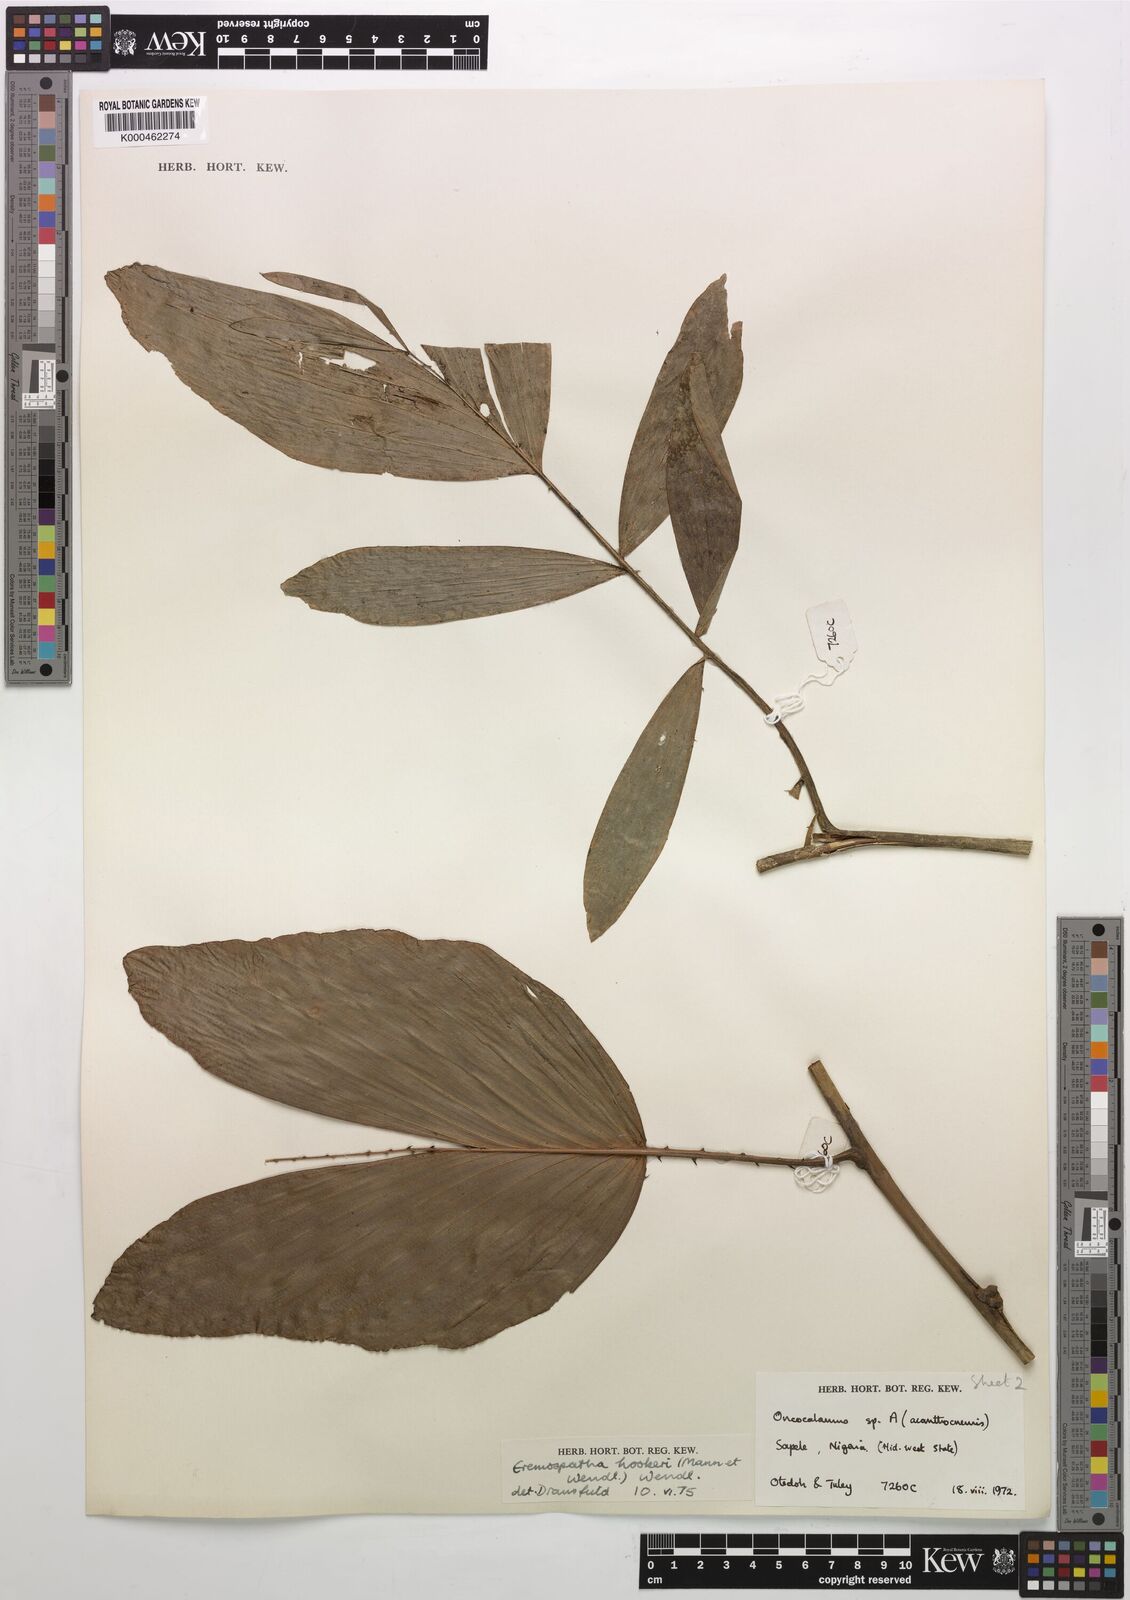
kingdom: Plantae
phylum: Tracheophyta
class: Liliopsida
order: Arecales
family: Arecaceae
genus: Eremospatha
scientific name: Eremospatha hookeri
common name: Rattan
